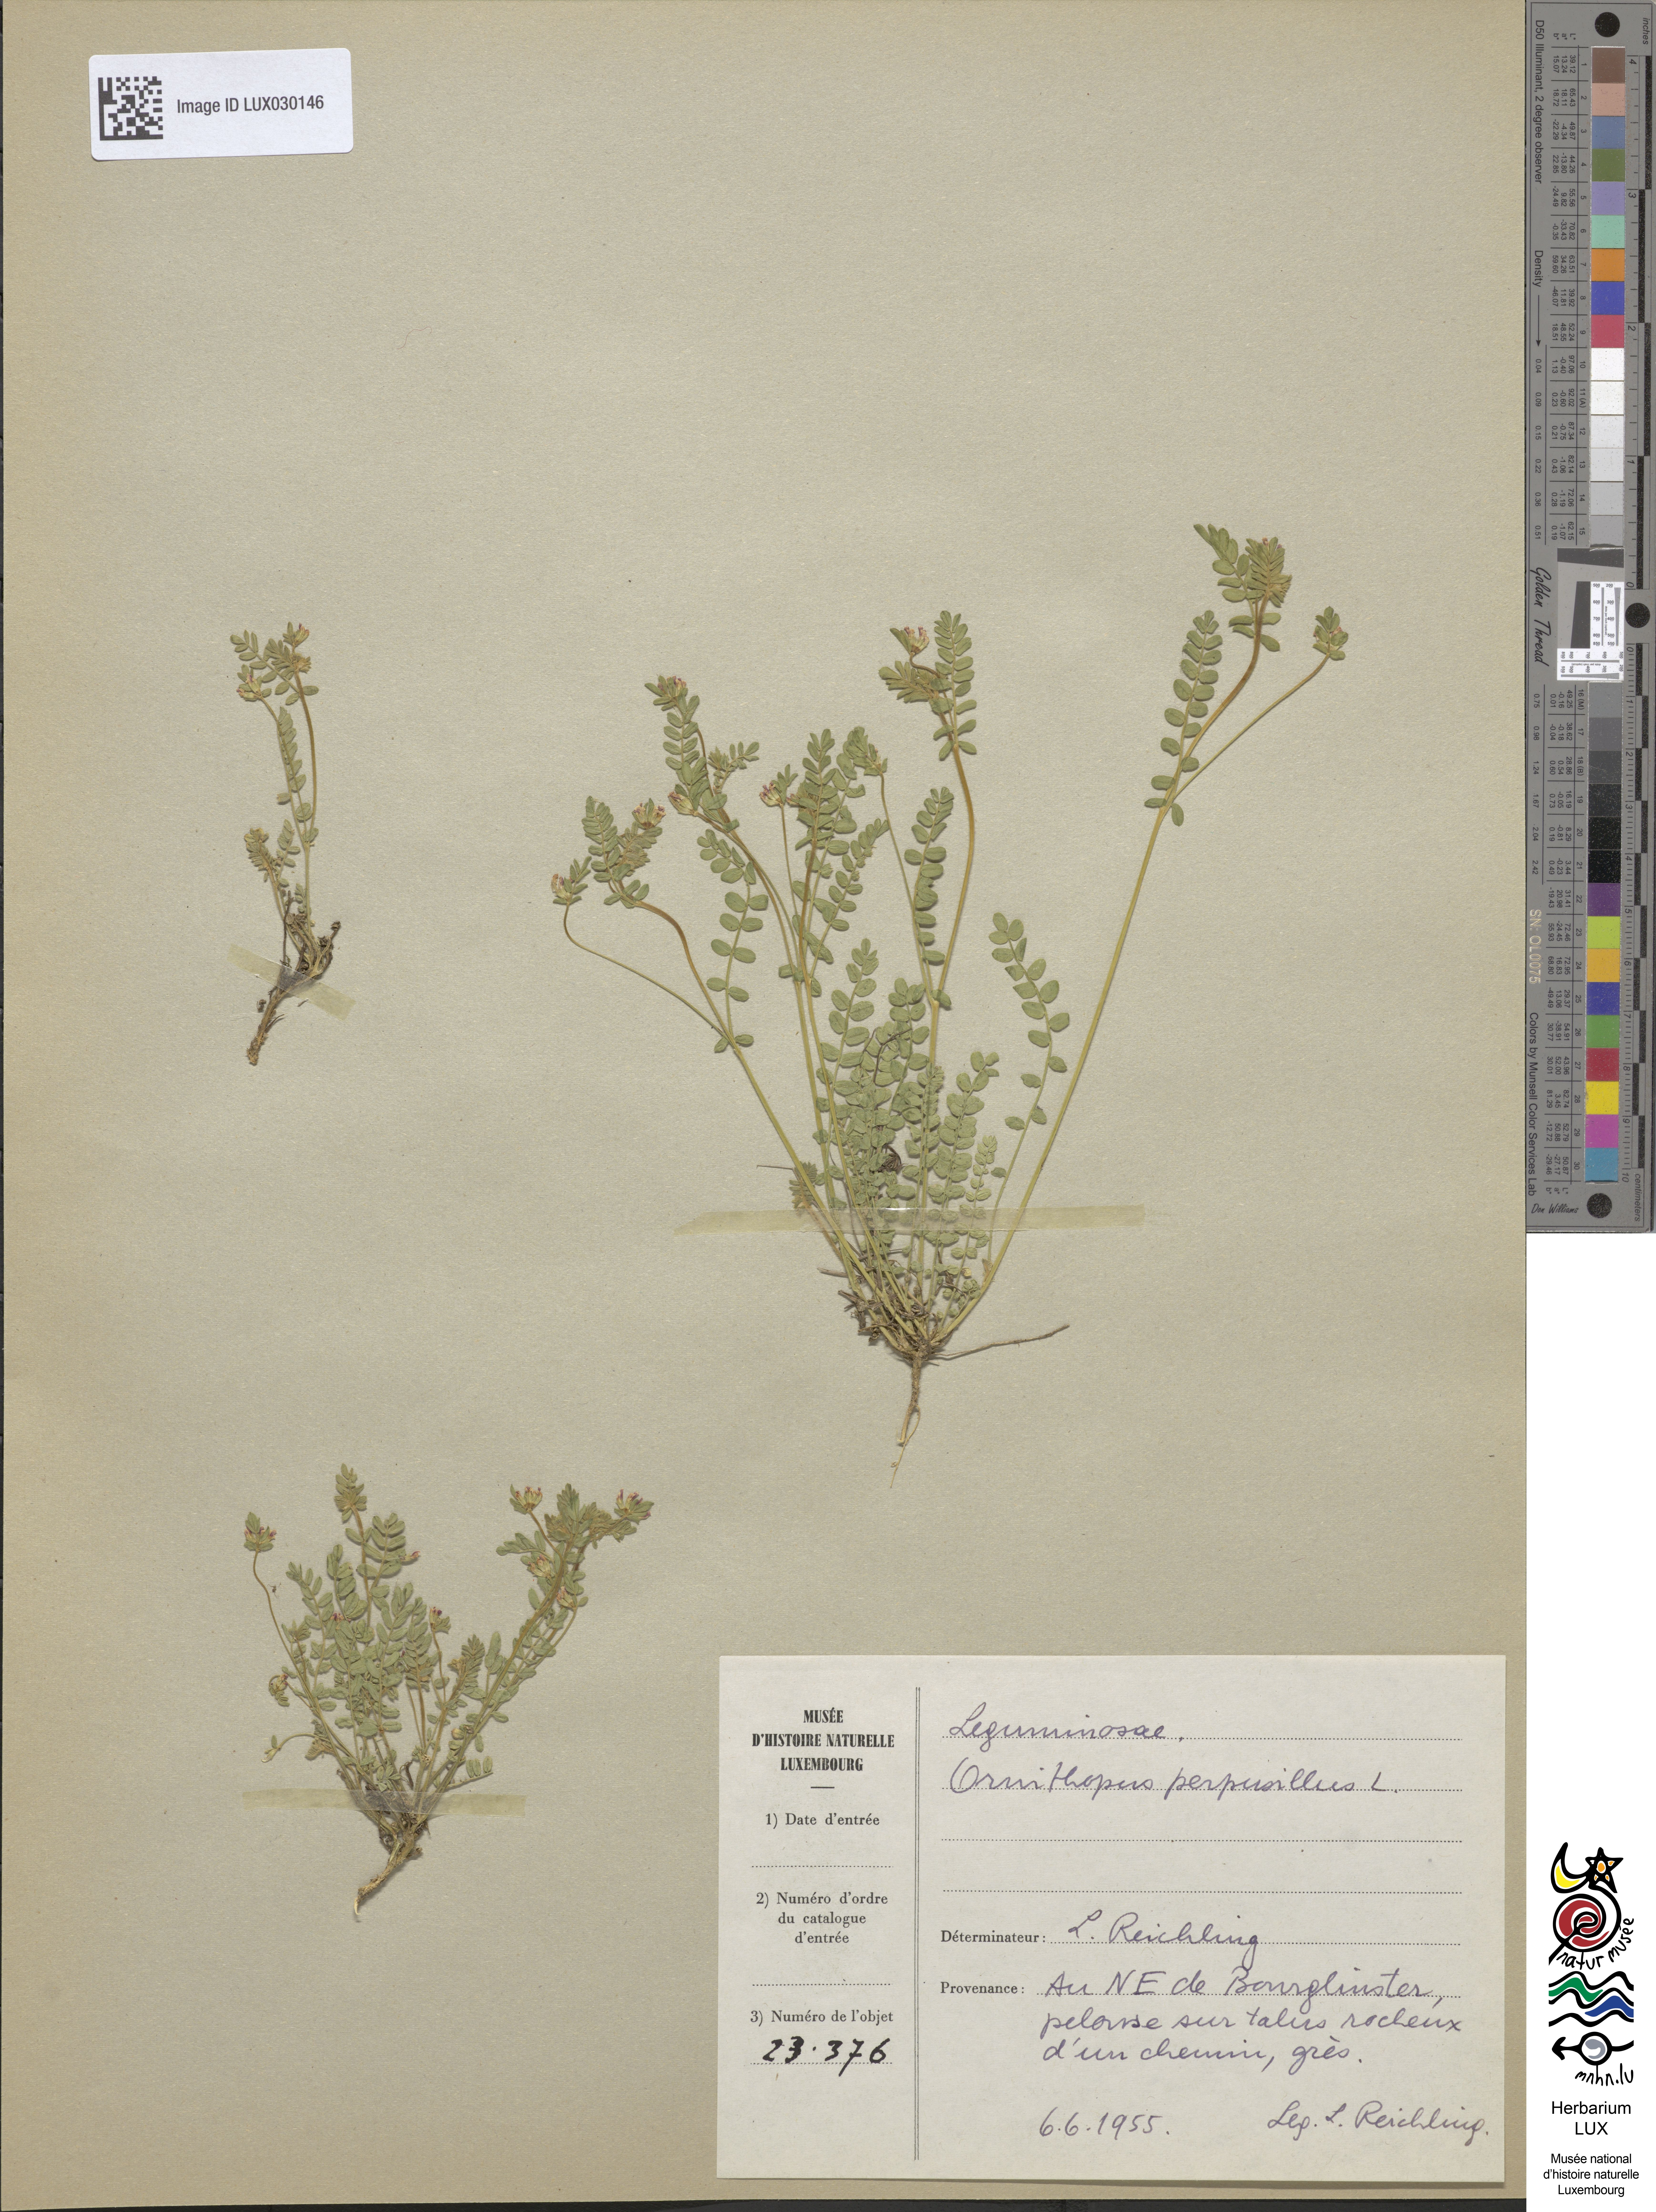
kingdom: Plantae
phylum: Tracheophyta
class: Magnoliopsida
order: Fabales
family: Fabaceae
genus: Ornithopus
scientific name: Ornithopus perpusillus
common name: Bird's-foot
